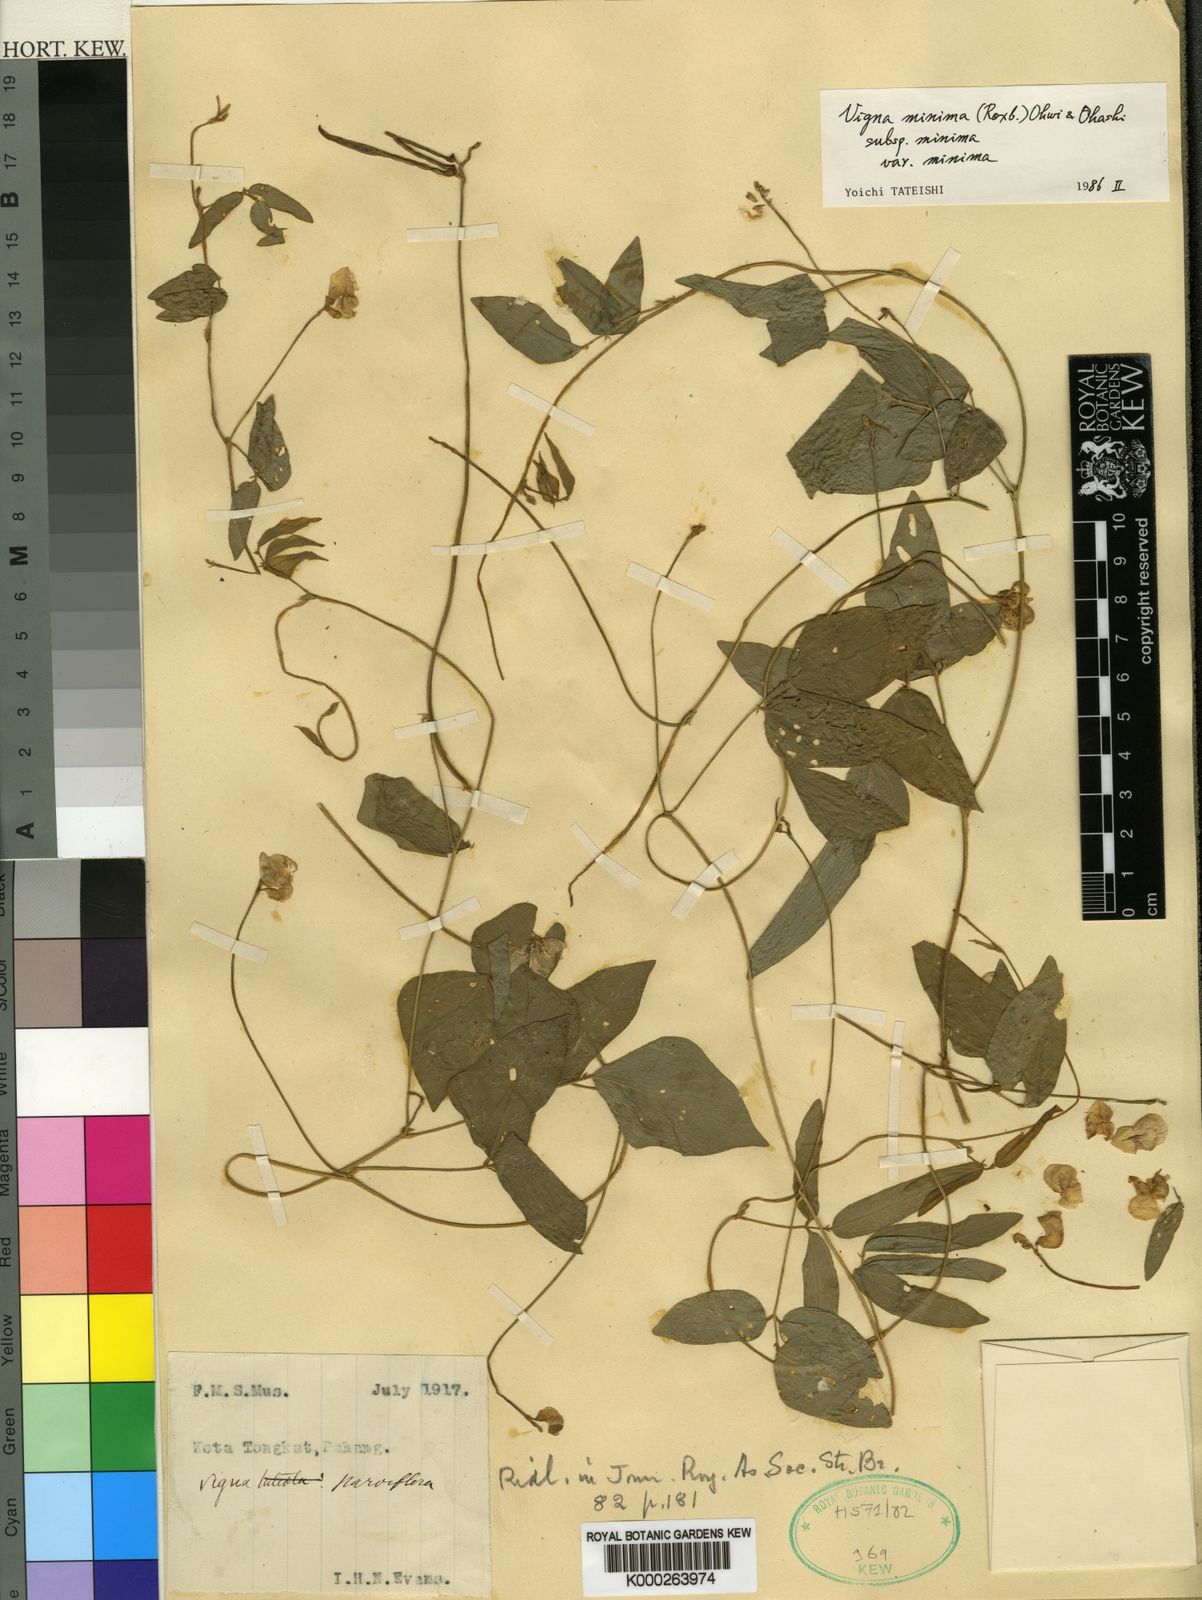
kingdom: Plantae
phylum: Tracheophyta
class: Magnoliopsida
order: Fabales
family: Fabaceae
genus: Vigna
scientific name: Vigna minima
